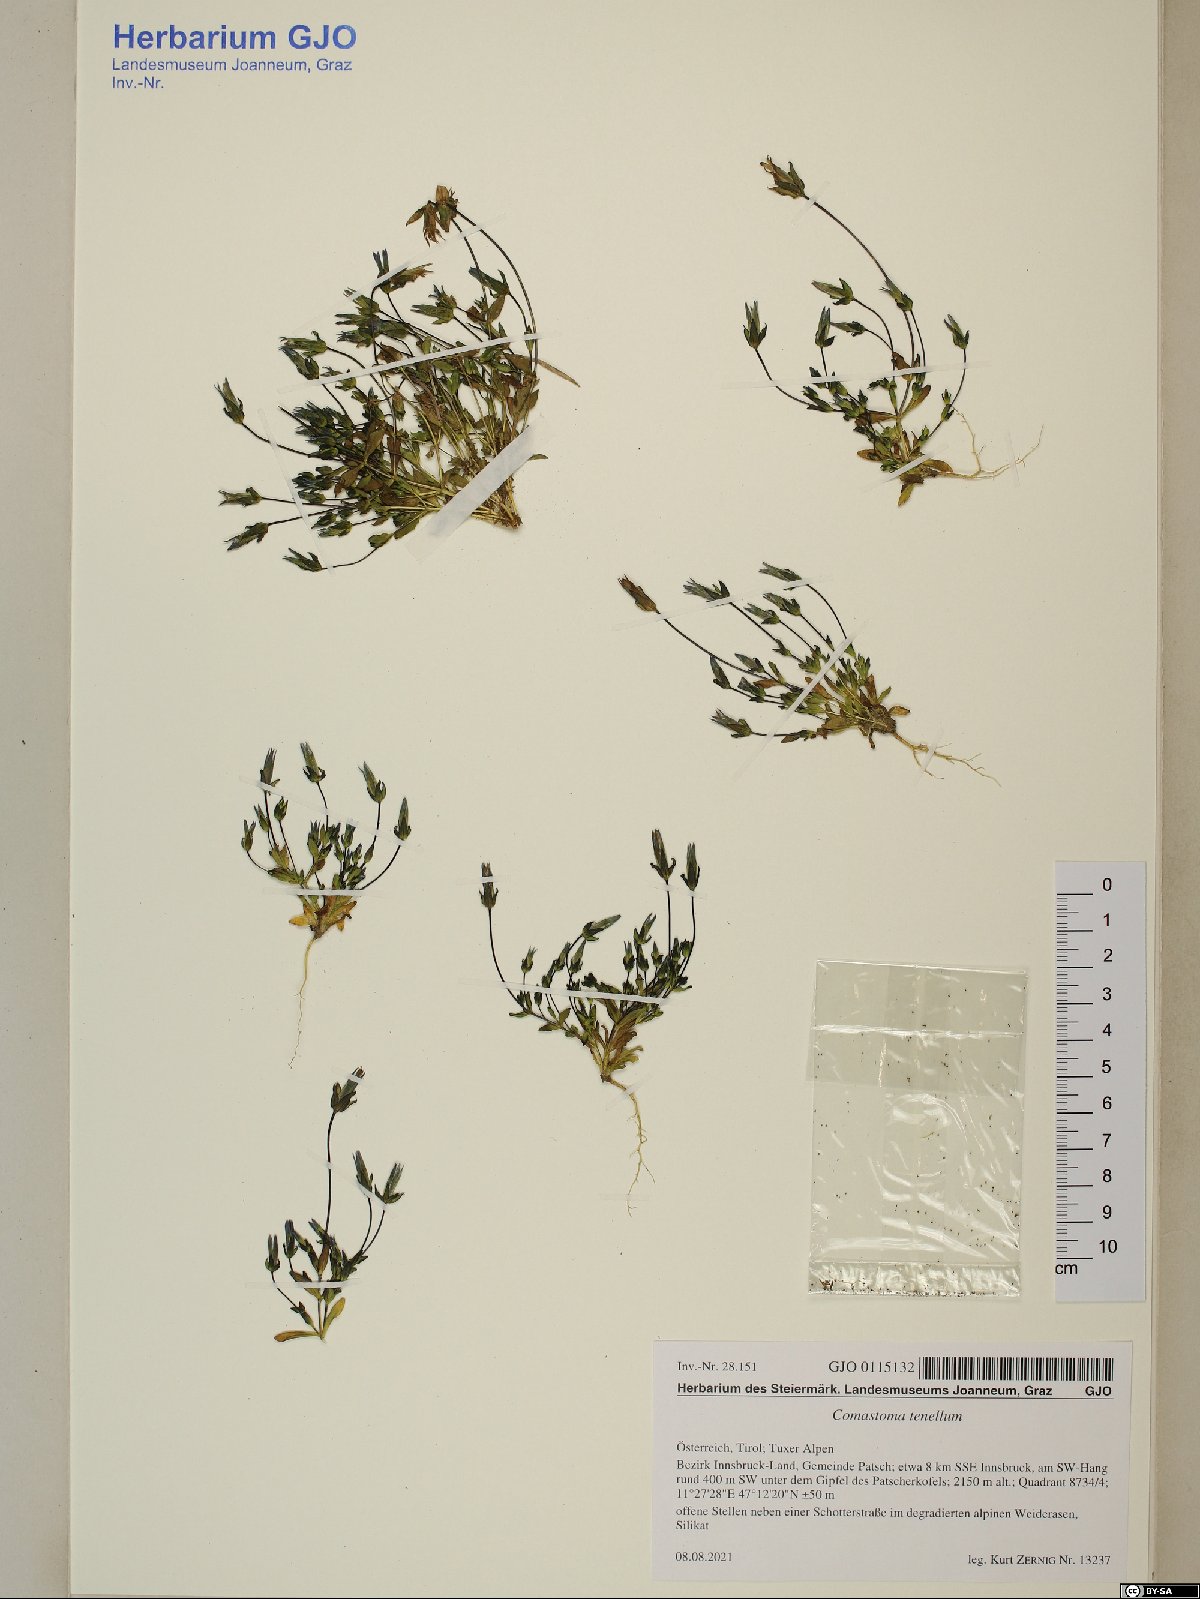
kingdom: Plantae
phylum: Tracheophyta
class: Magnoliopsida
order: Gentianales
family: Gentianaceae
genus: Comastoma
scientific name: Comastoma tenellum
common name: Dane's dwarf gentian
